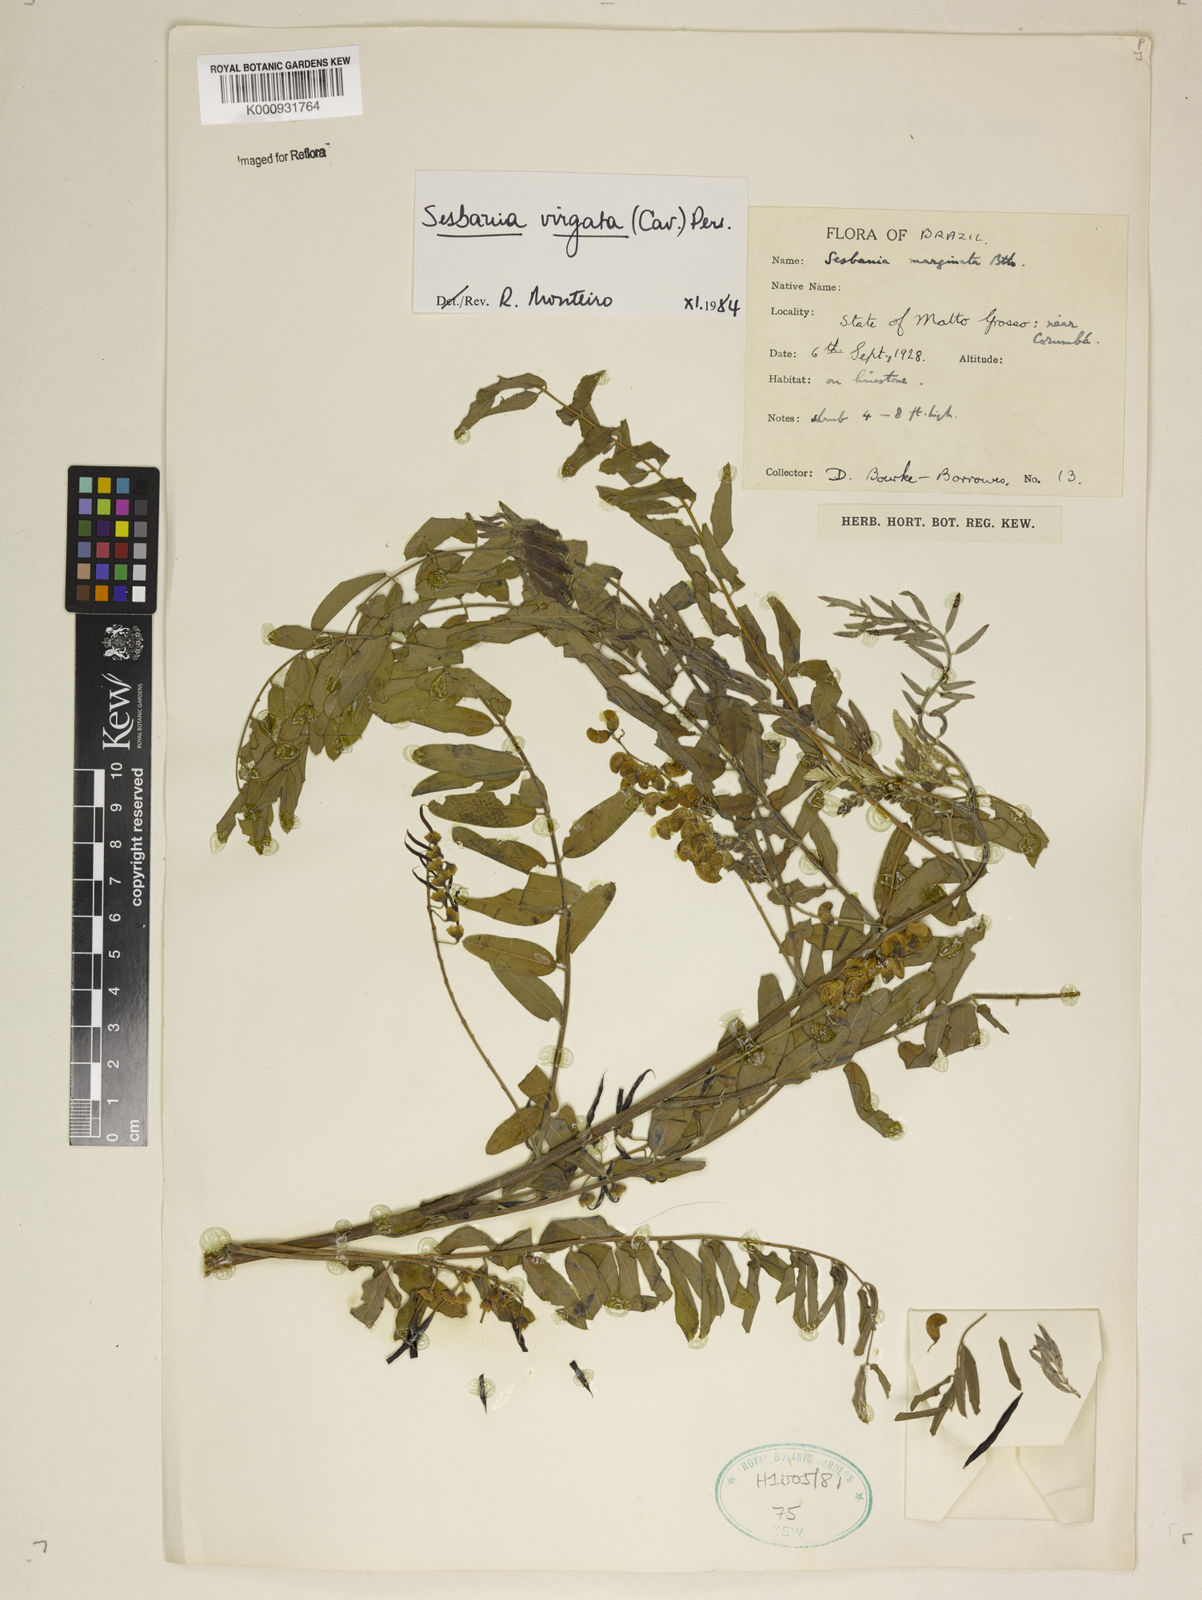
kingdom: Plantae
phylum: Tracheophyta
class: Magnoliopsida
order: Fabales
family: Fabaceae
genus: Sesbania
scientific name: Sesbania
